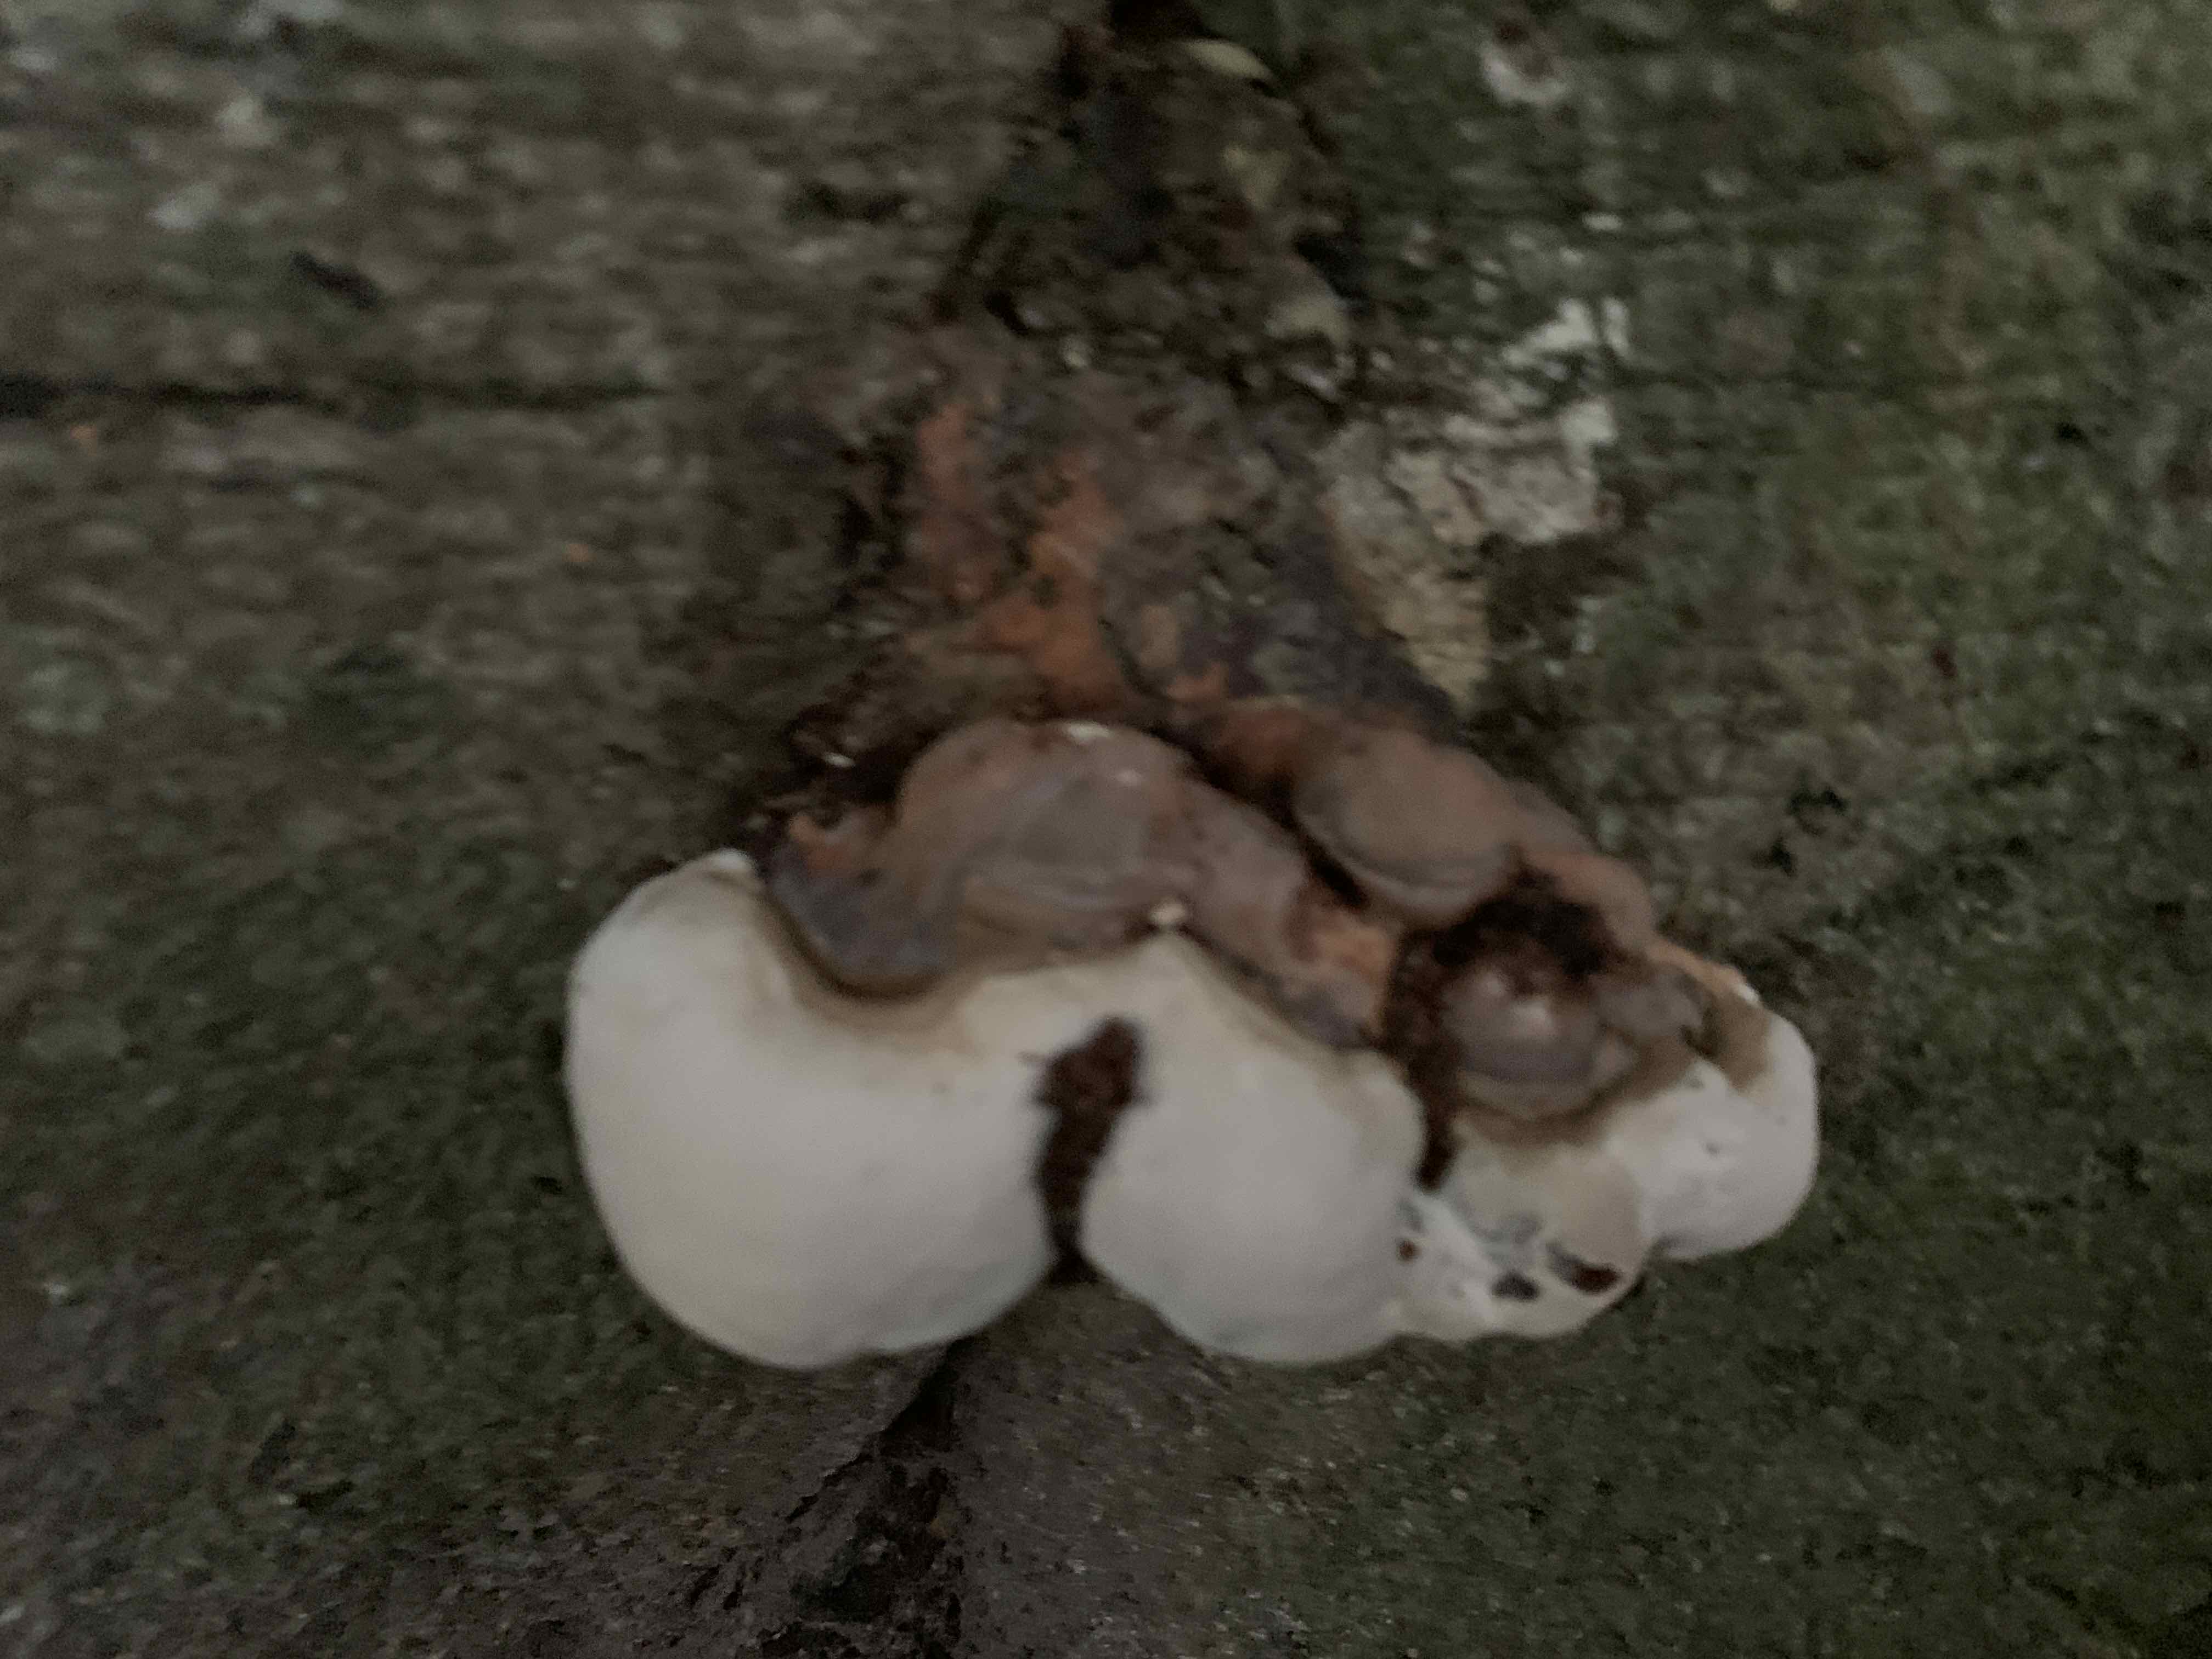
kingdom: Fungi
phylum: Basidiomycota
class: Agaricomycetes
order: Polyporales
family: Polyporaceae
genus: Ganoderma
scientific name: Ganoderma pfeifferi
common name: kobberrød lakporesvamp
